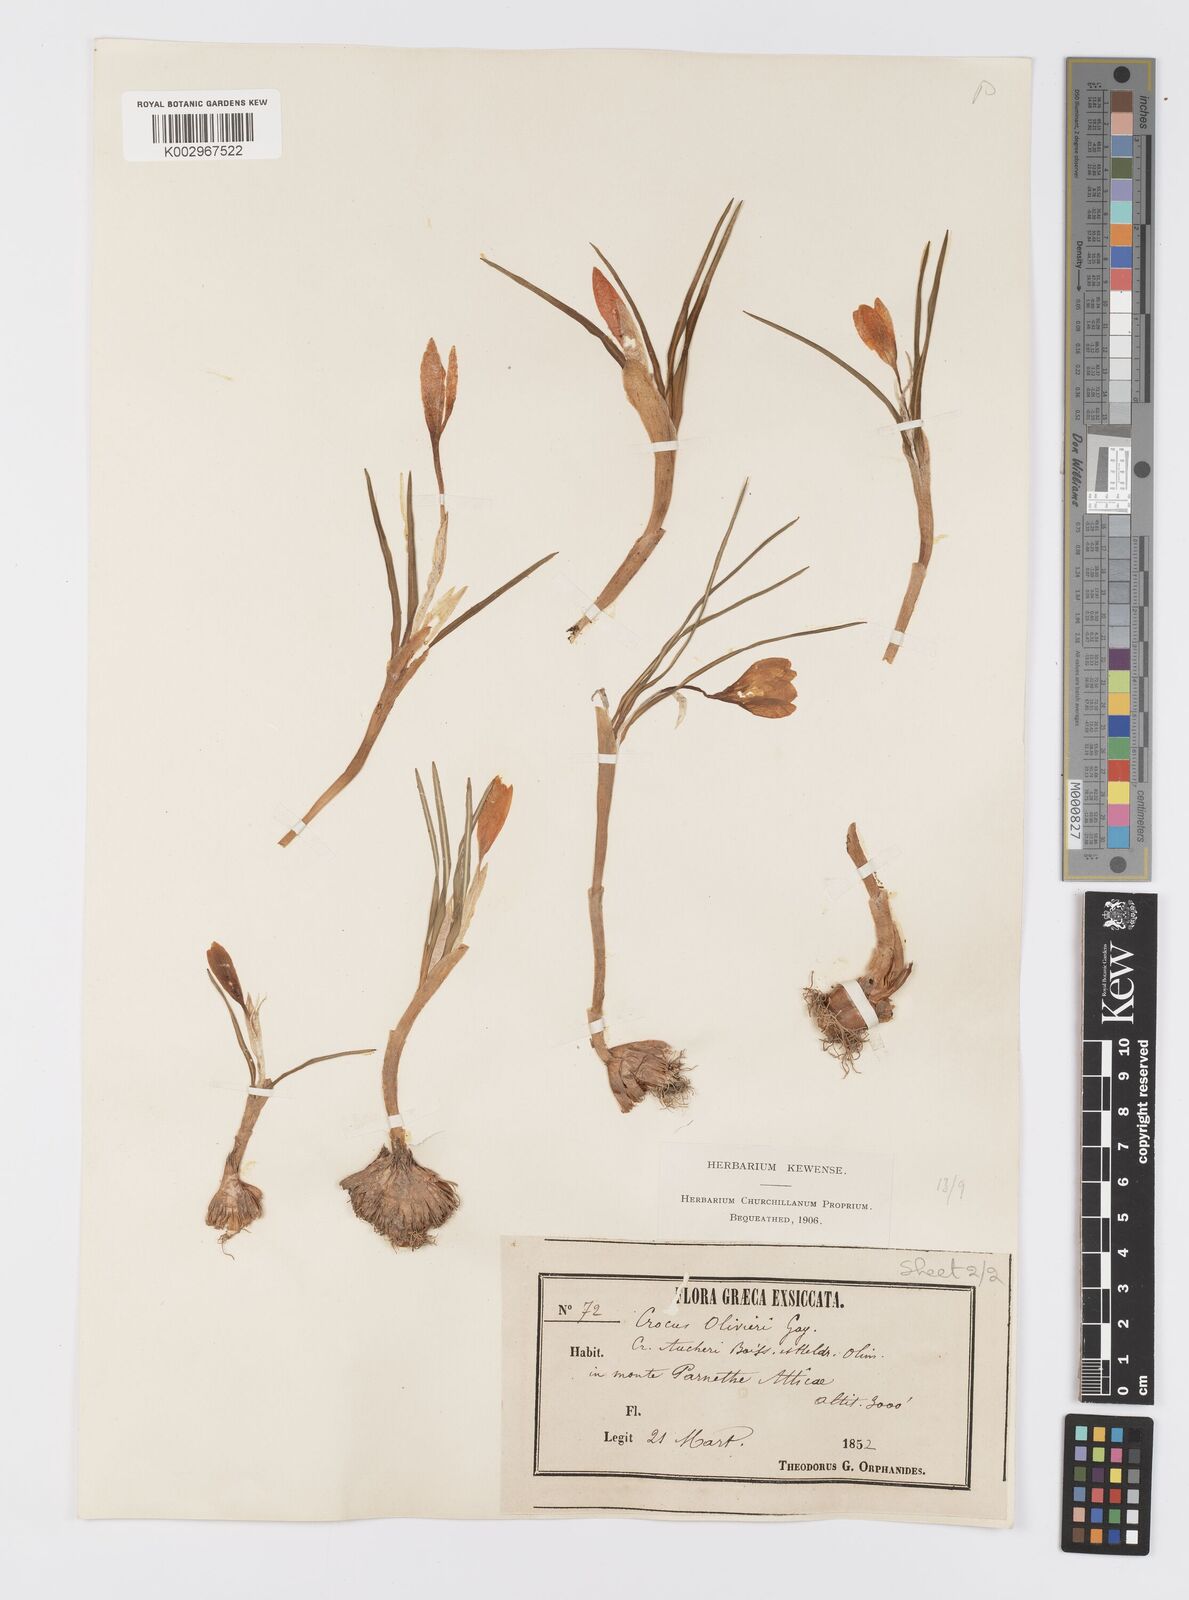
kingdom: Plantae
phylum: Tracheophyta
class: Liliopsida
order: Asparagales
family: Iridaceae
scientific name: Iridaceae
